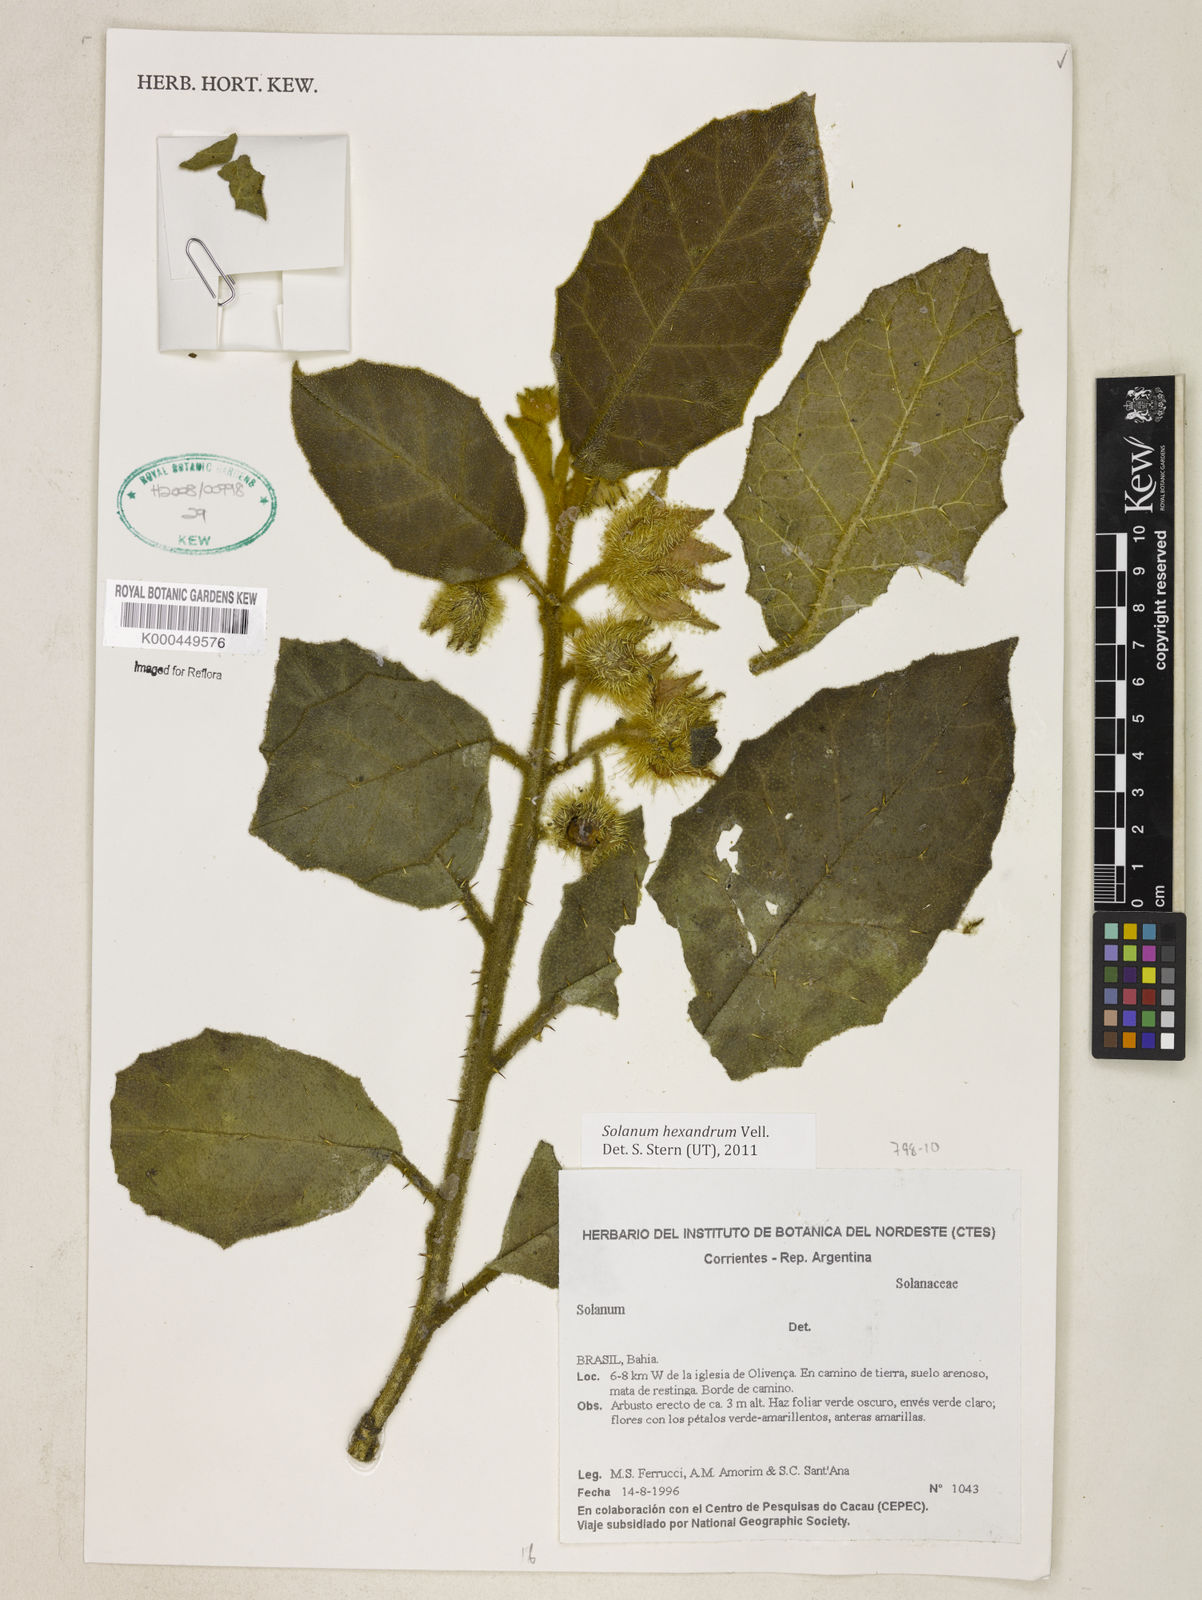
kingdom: Plantae
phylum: Tracheophyta
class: Magnoliopsida
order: Solanales
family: Solanaceae
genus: Solanum
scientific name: Solanum hexandrum
